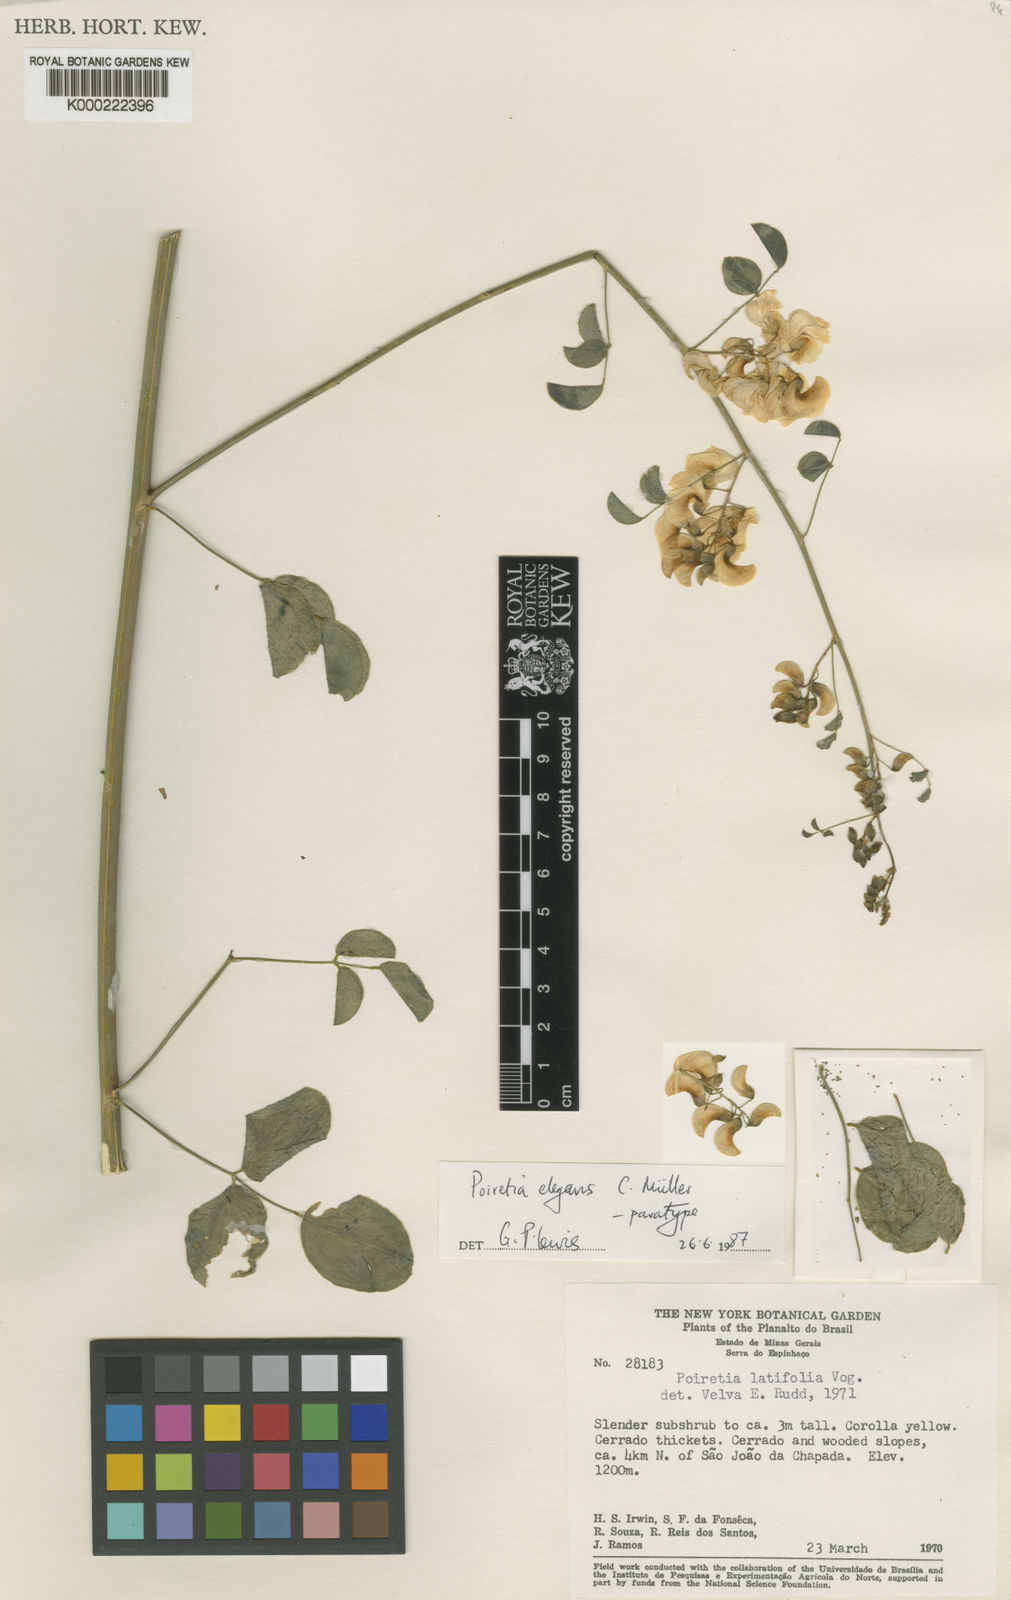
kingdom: Plantae
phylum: Tracheophyta
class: Magnoliopsida
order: Fabales
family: Fabaceae
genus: Poiretia
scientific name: Poiretia
